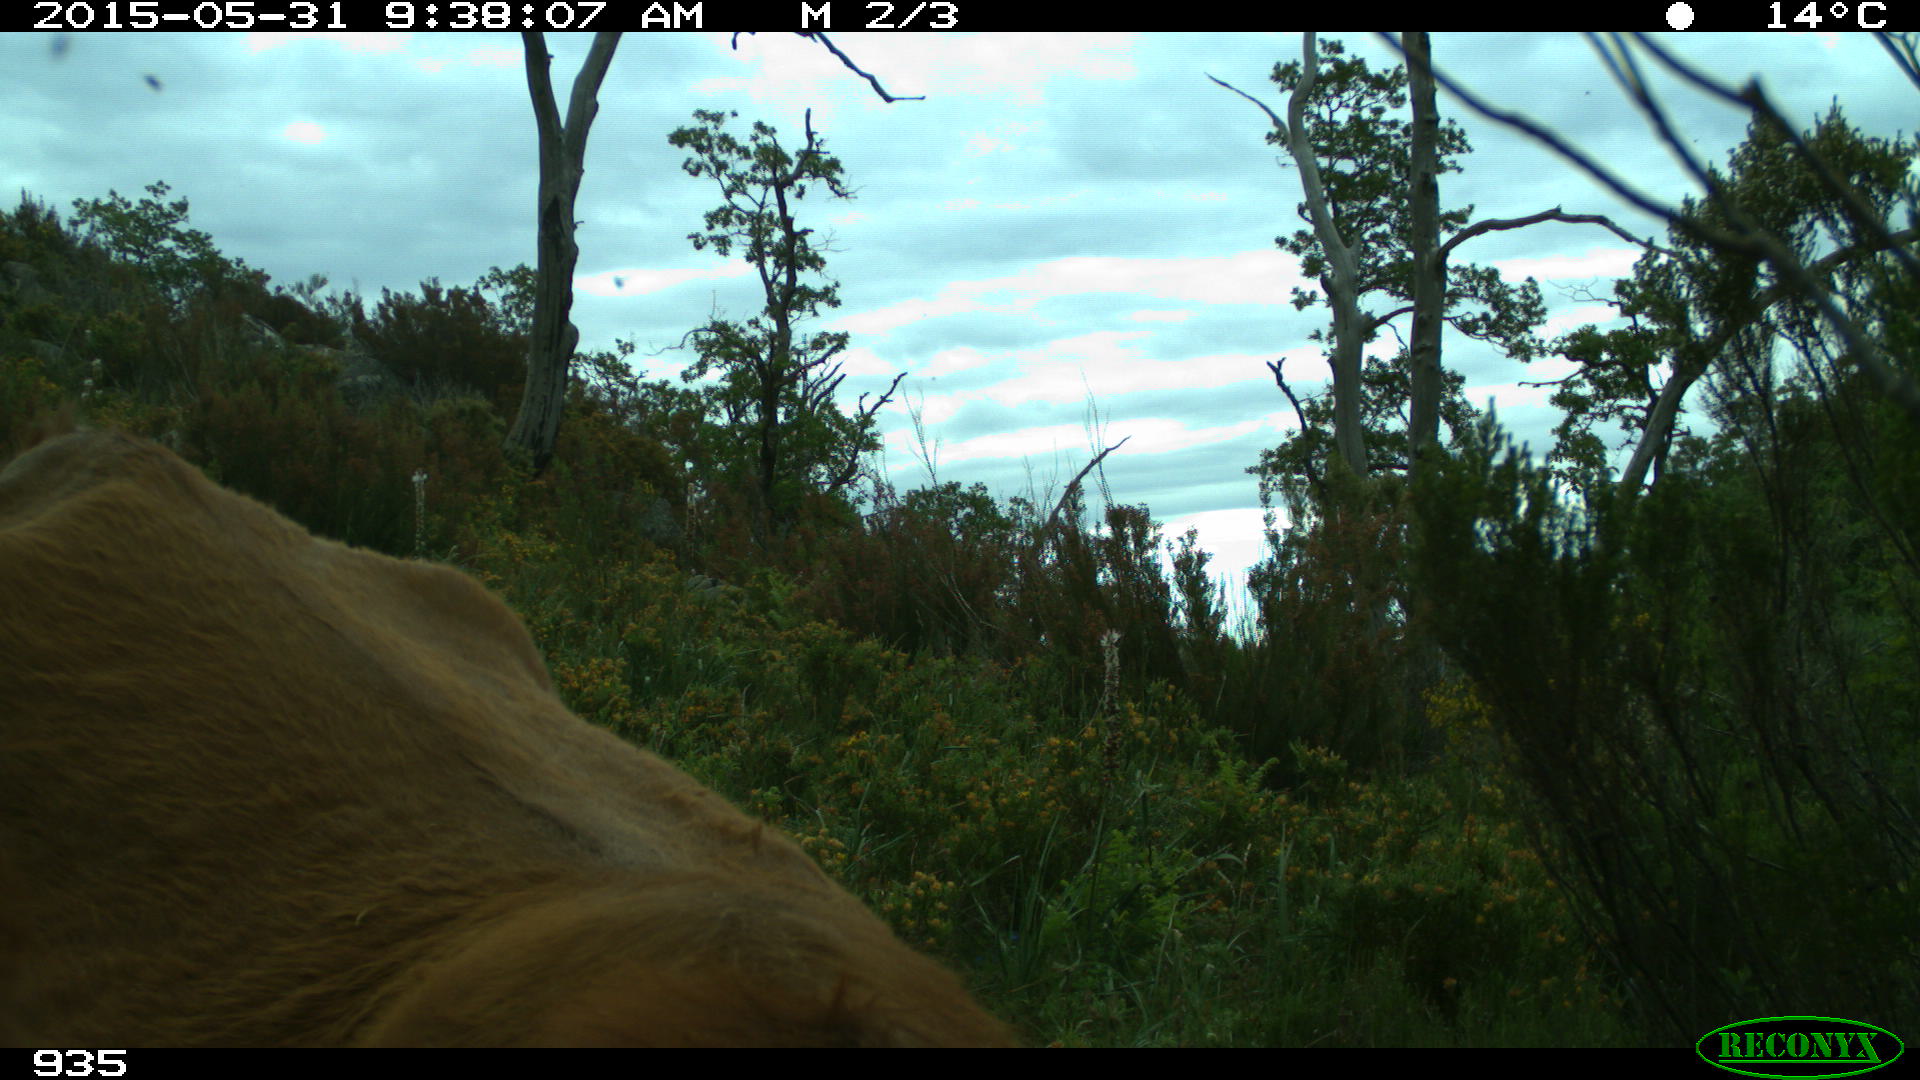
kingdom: Animalia
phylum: Chordata
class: Mammalia
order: Artiodactyla
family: Bovidae
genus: Bos
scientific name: Bos taurus
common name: Domesticated cattle
